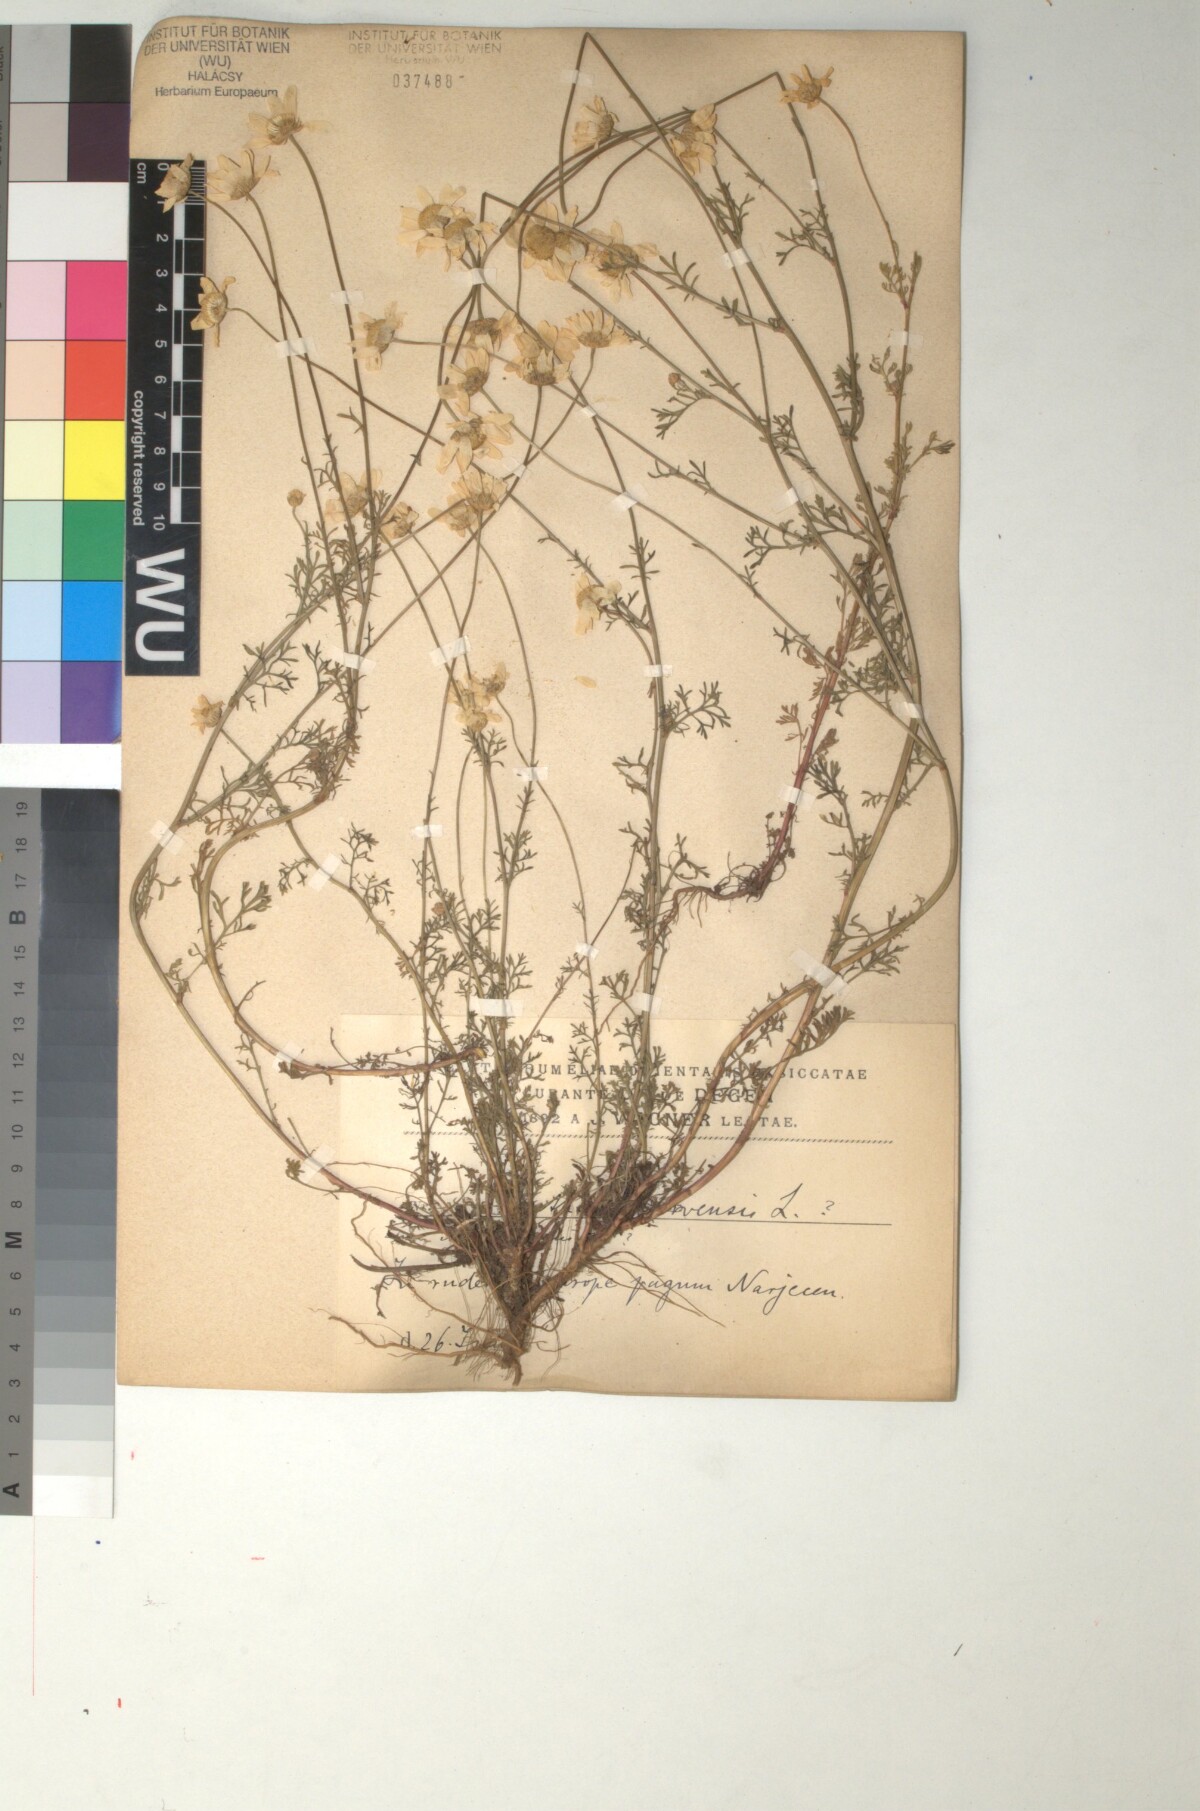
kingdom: Plantae
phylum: Tracheophyta
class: Magnoliopsida
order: Asterales
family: Asteraceae
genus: Anthemis
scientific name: Anthemis arvensis
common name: Corn chamomile
